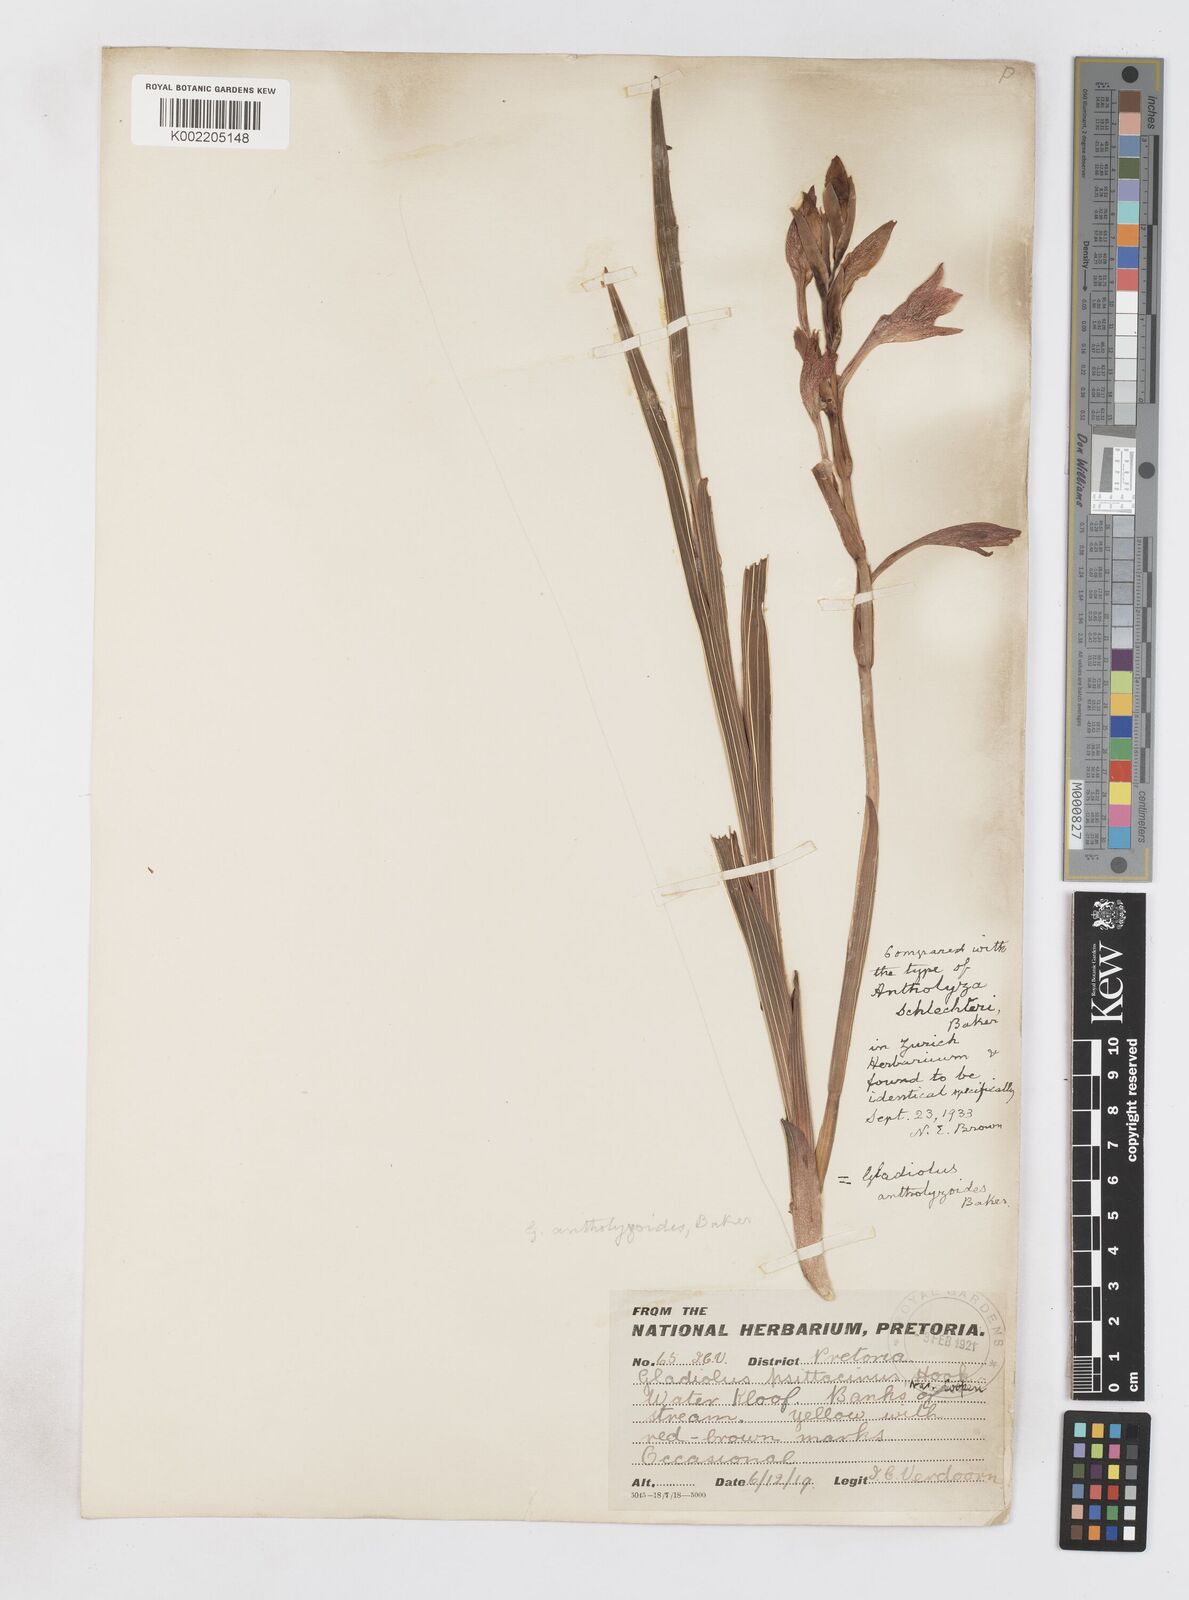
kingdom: Plantae
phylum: Tracheophyta
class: Liliopsida
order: Asparagales
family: Iridaceae
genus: Gladiolus
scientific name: Gladiolus dalenii
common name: Cornflag
